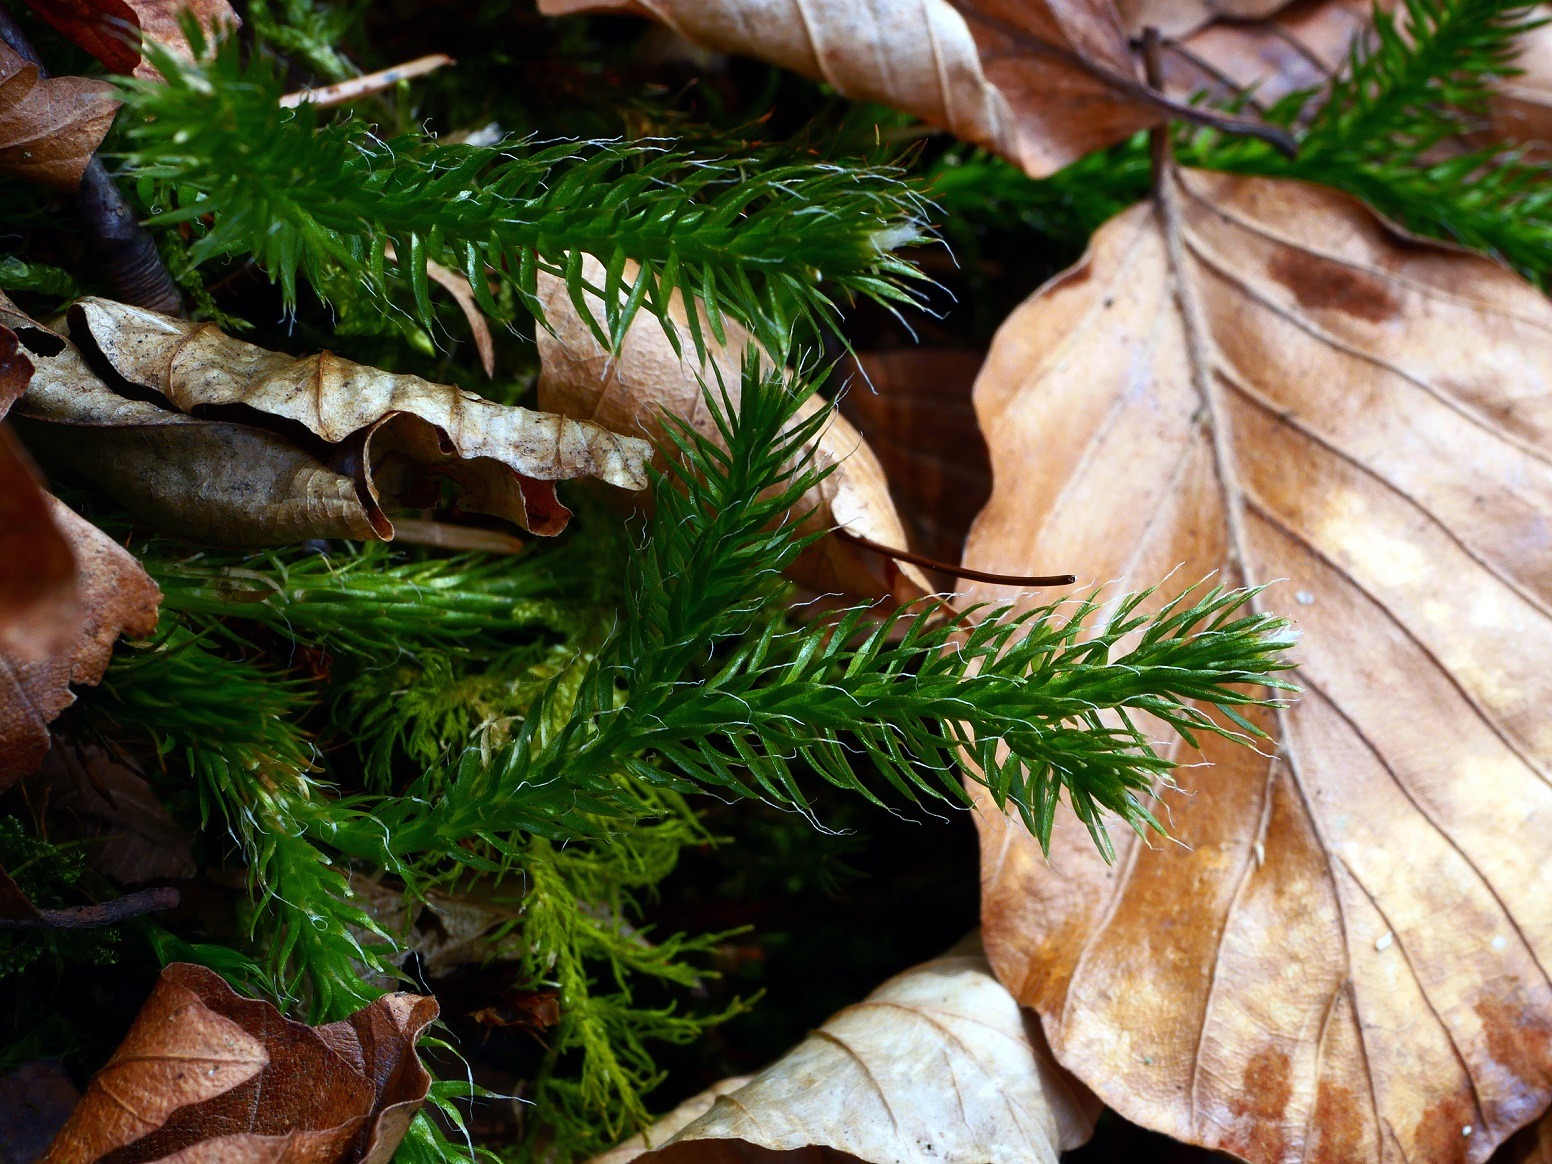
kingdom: Plantae
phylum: Tracheophyta
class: Lycopodiopsida
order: Lycopodiales
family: Lycopodiaceae
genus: Lycopodium
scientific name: Lycopodium clavatum
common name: Almindelig ulvefod
